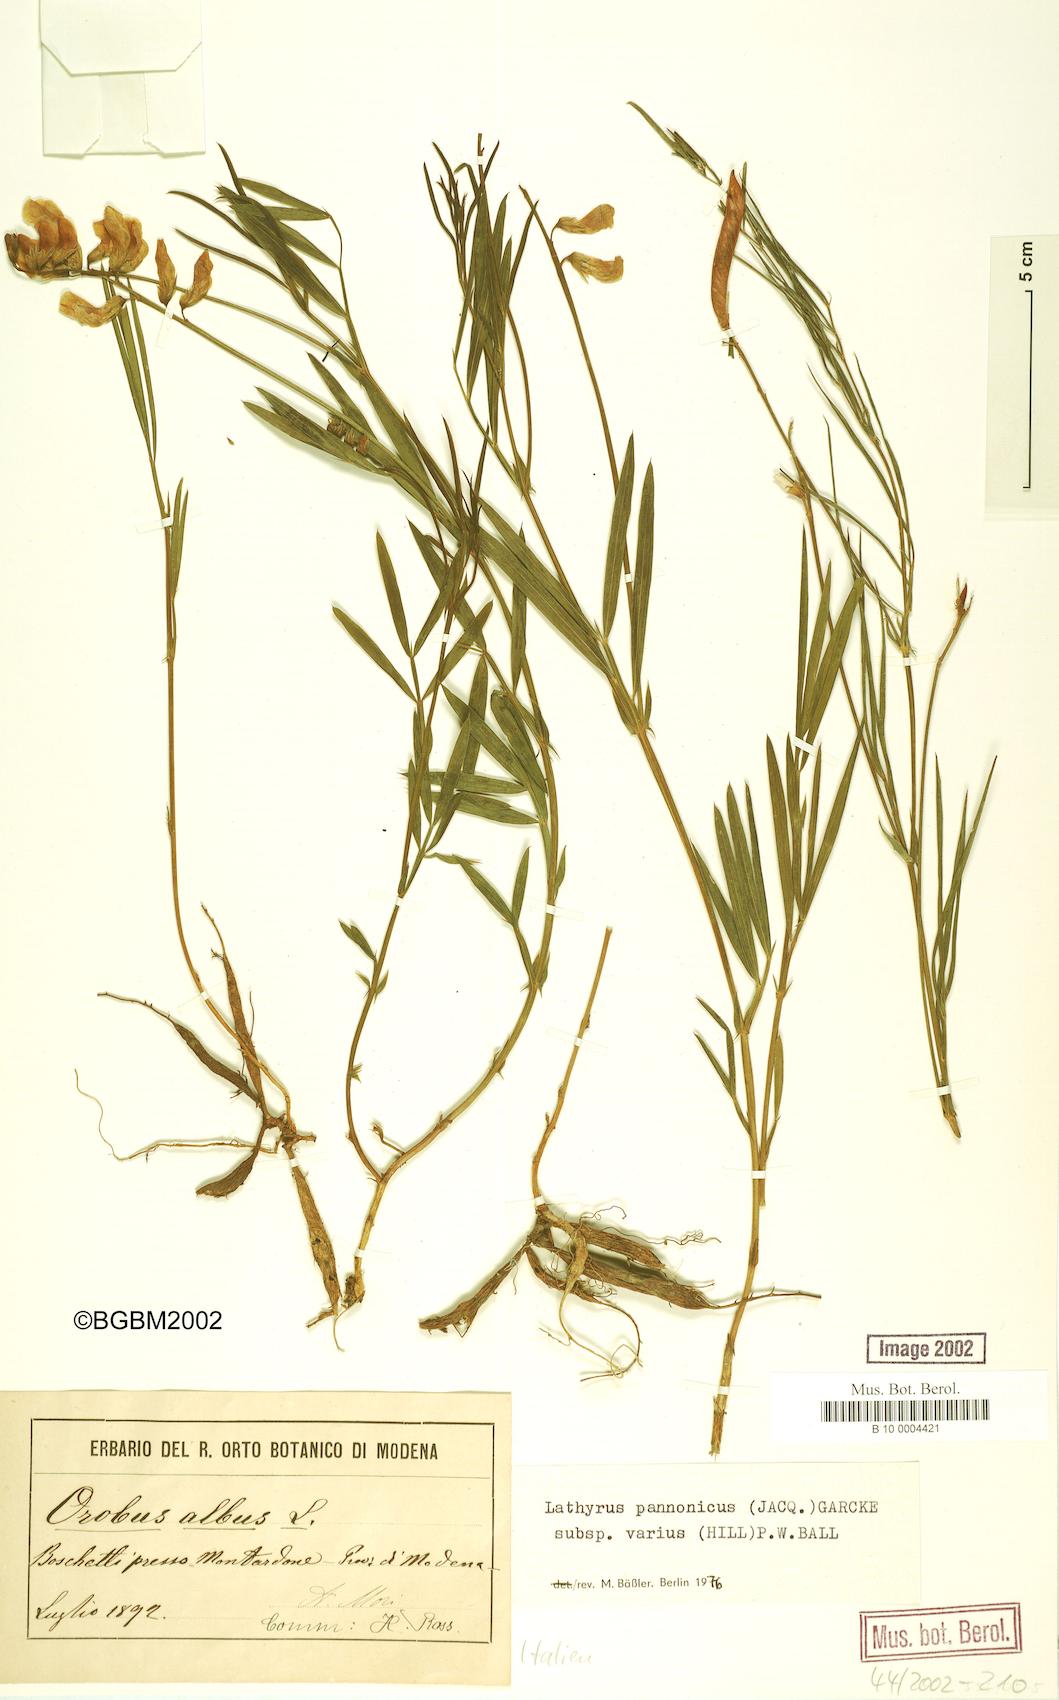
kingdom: Plantae
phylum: Tracheophyta
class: Magnoliopsida
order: Fabales
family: Fabaceae
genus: Lathyrus
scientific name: Lathyrus pannonicus
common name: Pea
